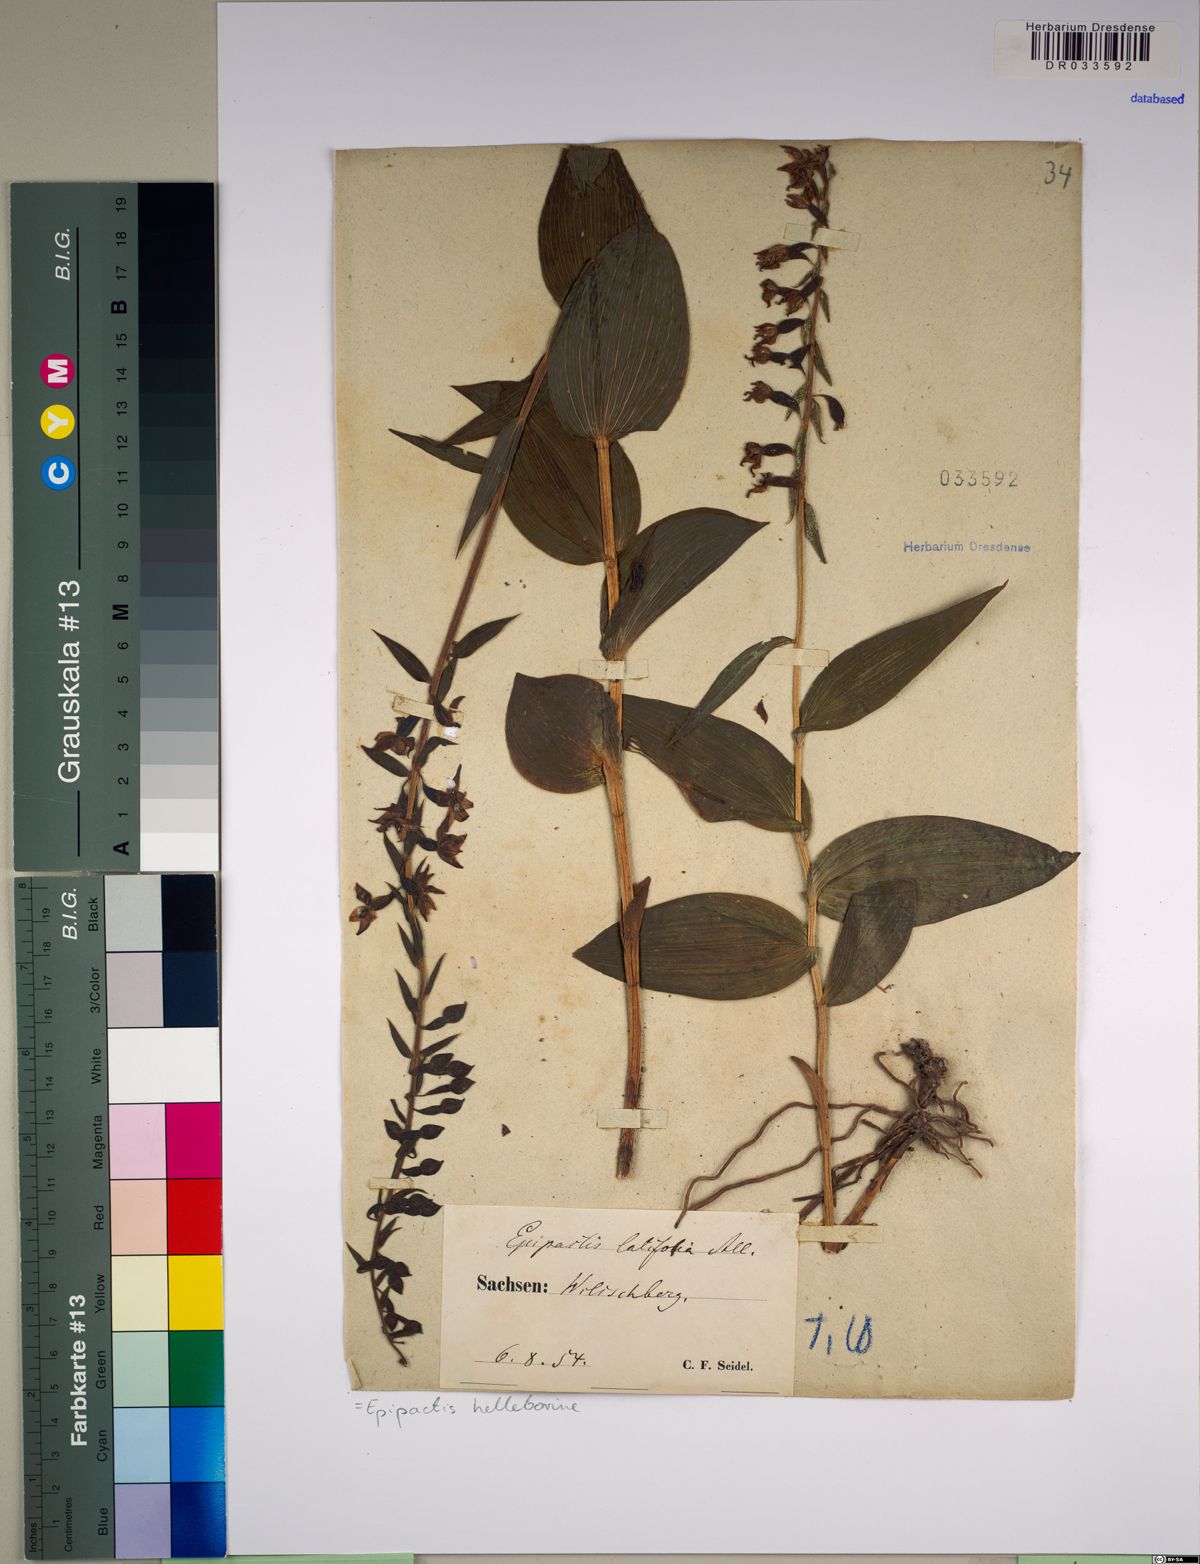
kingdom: Plantae
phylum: Tracheophyta
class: Liliopsida
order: Asparagales
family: Orchidaceae
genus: Epipactis
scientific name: Epipactis helleborine
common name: Broad-leaved helleborine
